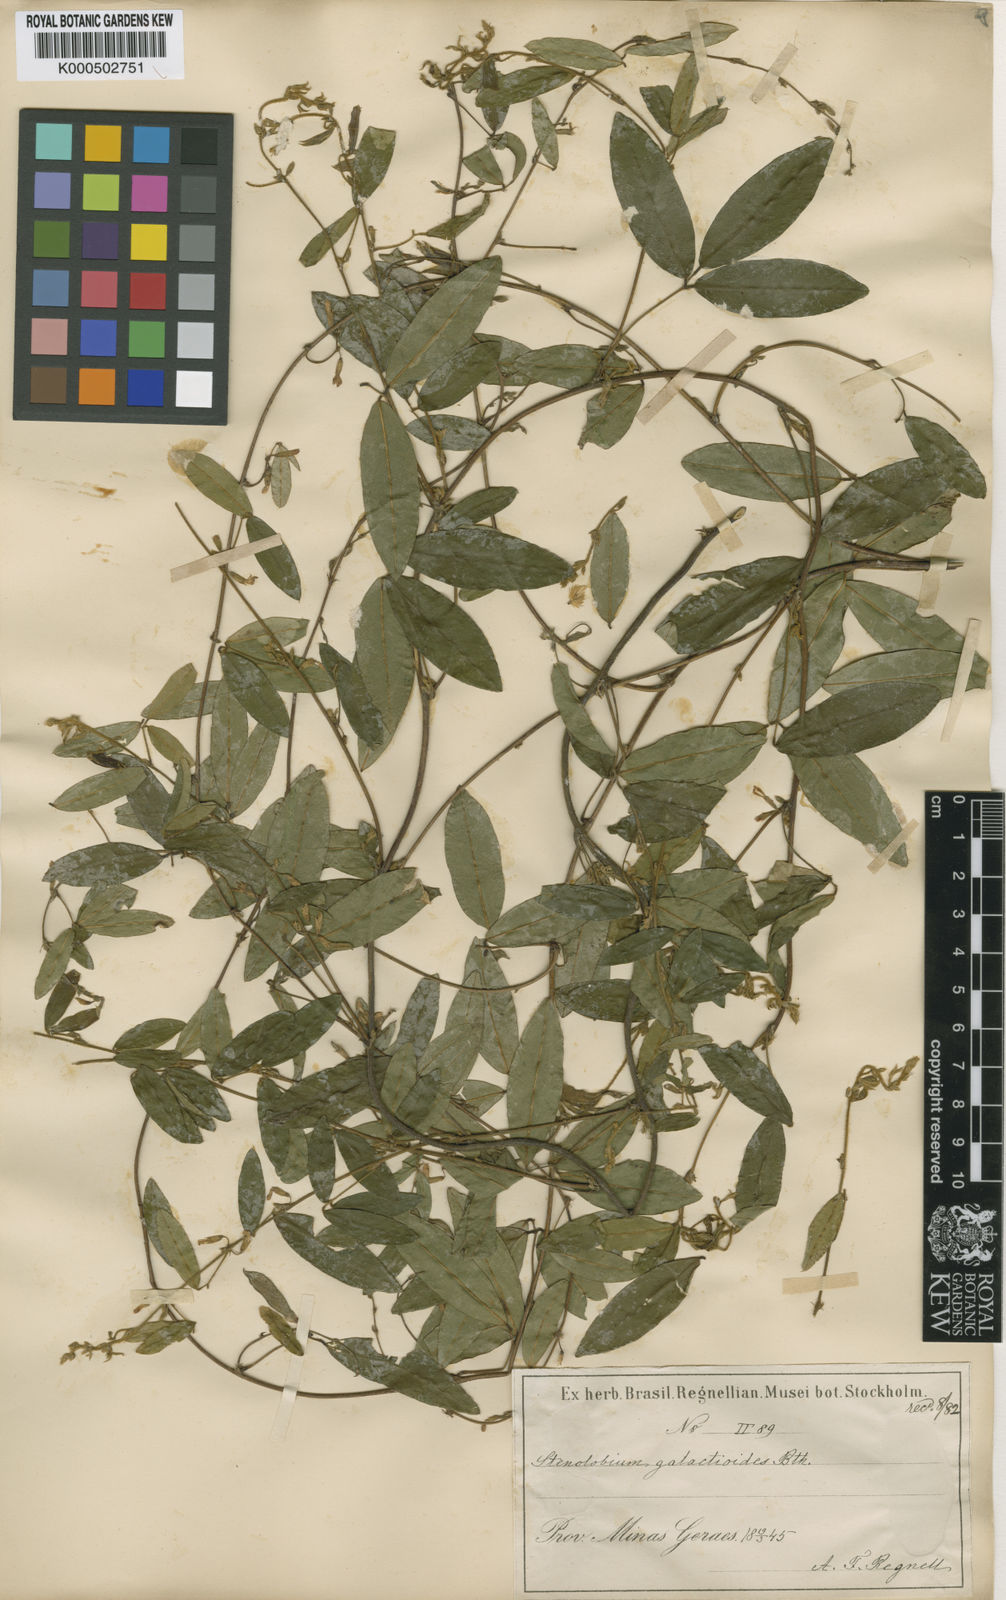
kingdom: Plantae
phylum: Tracheophyta
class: Magnoliopsida
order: Fabales
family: Fabaceae
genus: Calopogonium
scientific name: Calopogonium
